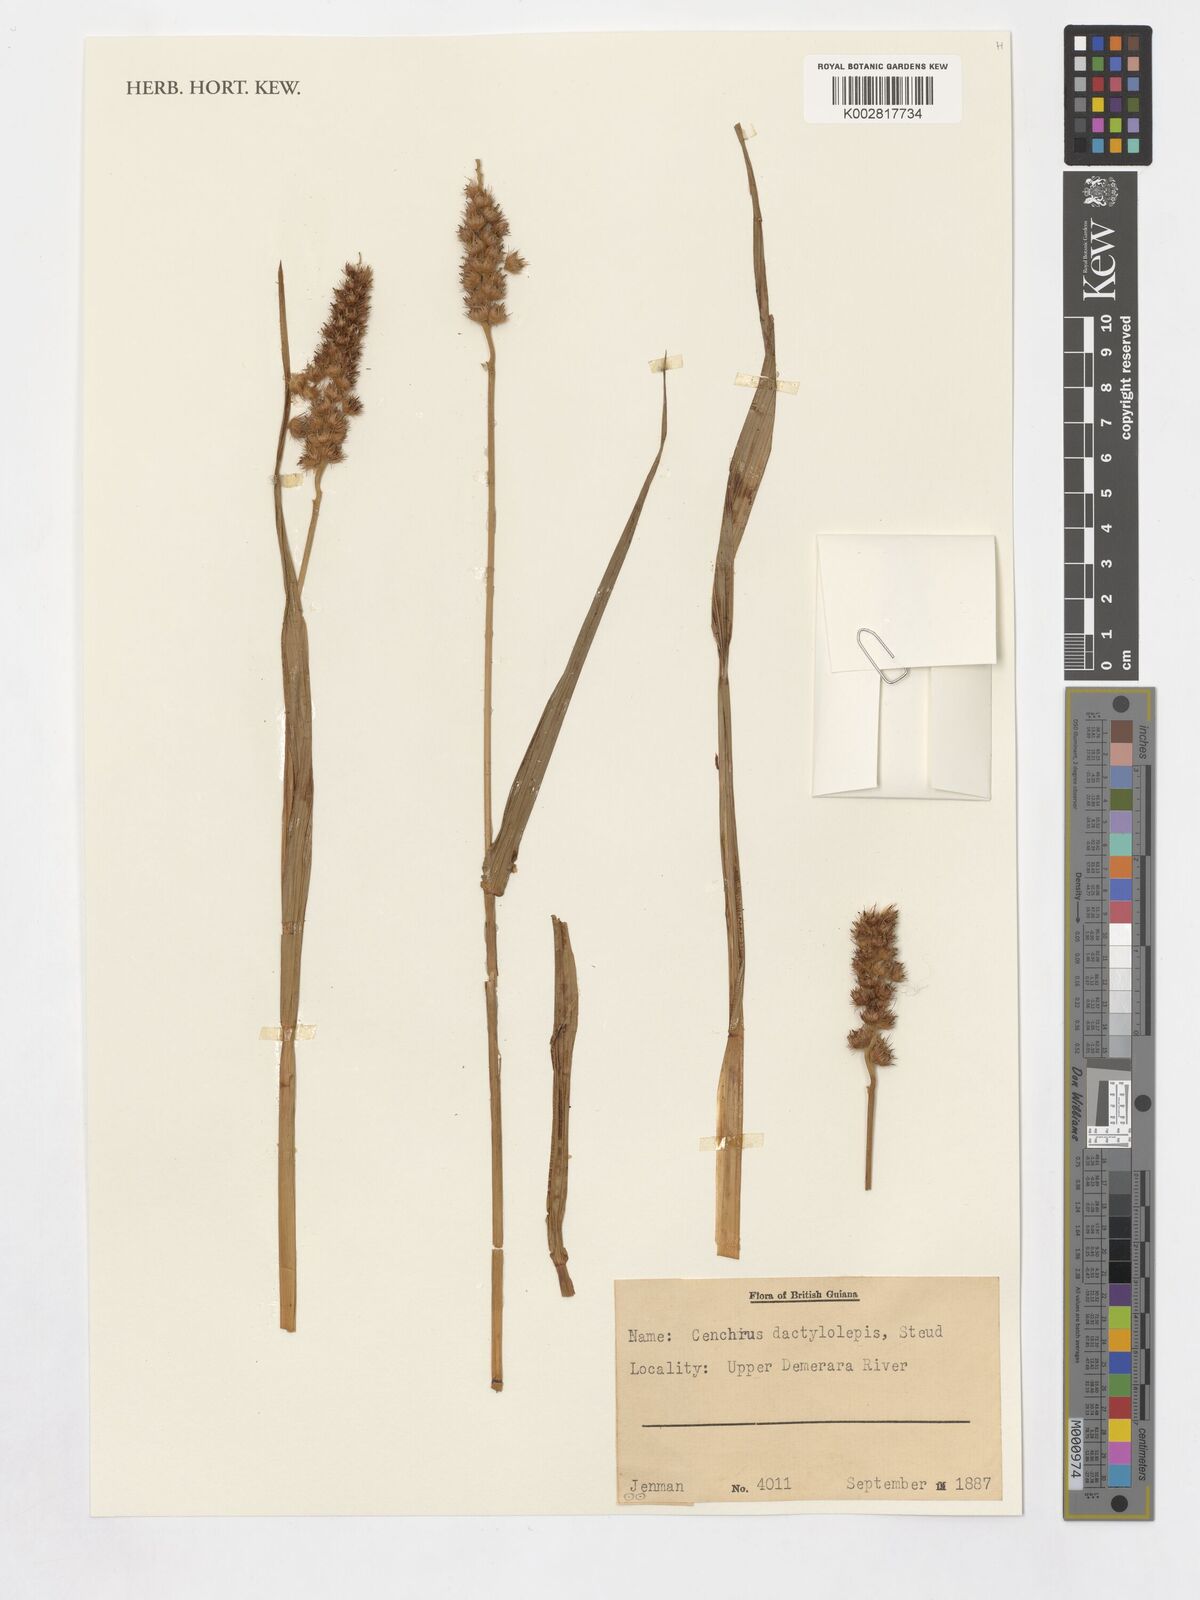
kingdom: Plantae
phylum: Tracheophyta
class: Liliopsida
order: Poales
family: Poaceae
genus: Cenchrus
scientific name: Cenchrus brownii
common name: Slim-bristle sandbur
